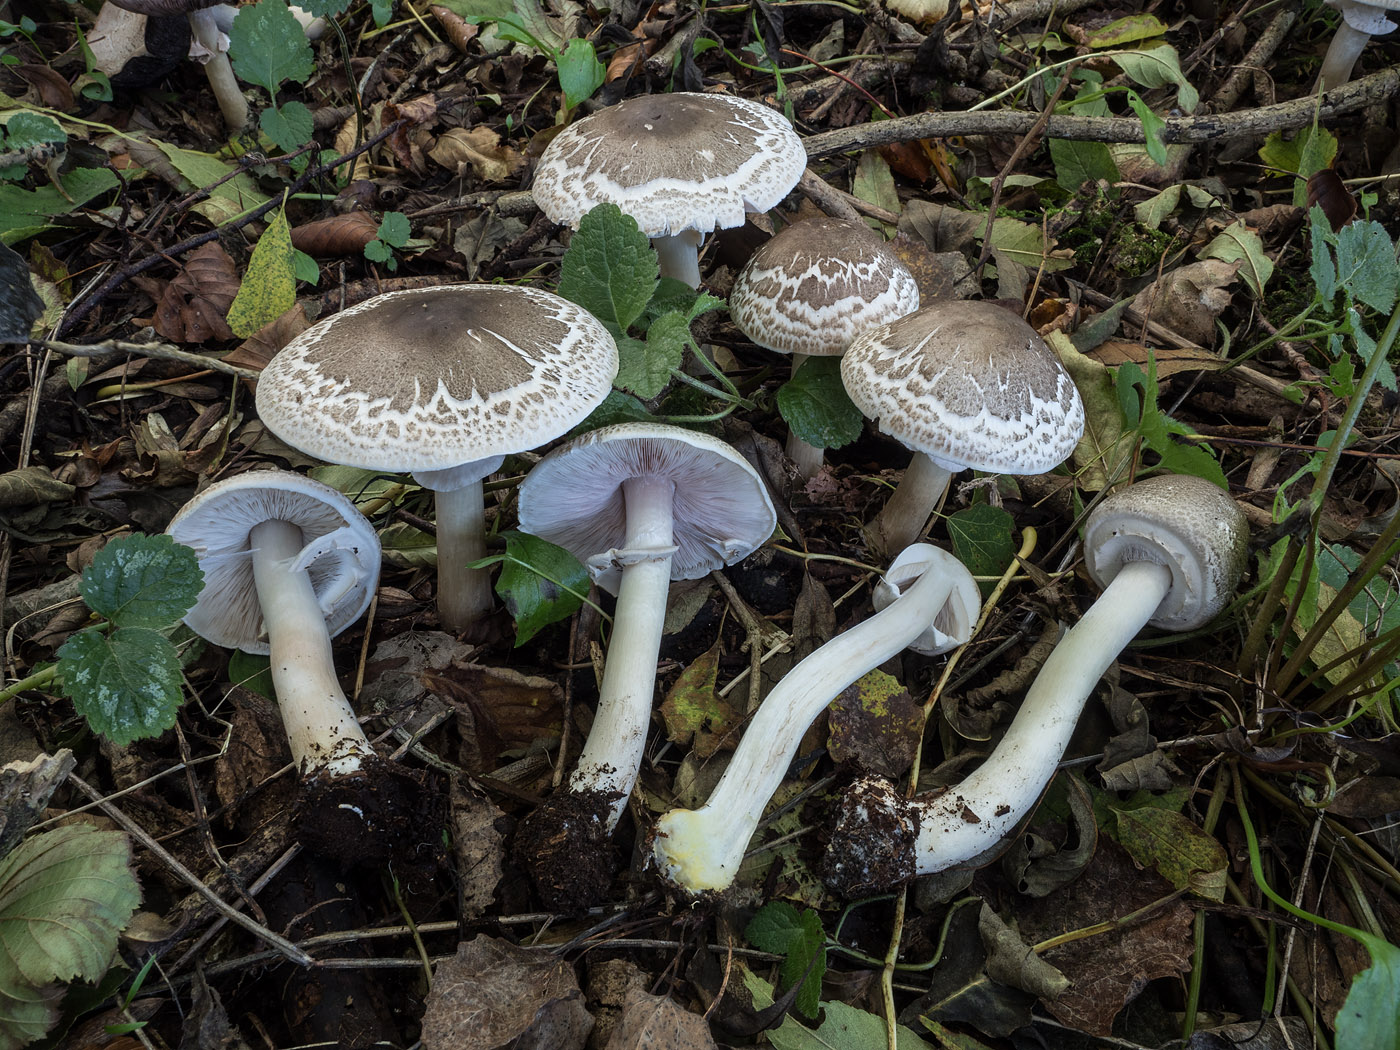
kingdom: Fungi
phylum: Basidiomycota
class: Agaricomycetes
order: Agaricales
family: Agaricaceae
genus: Agaricus
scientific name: Agaricus moelleri
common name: perlehøne-champignon
